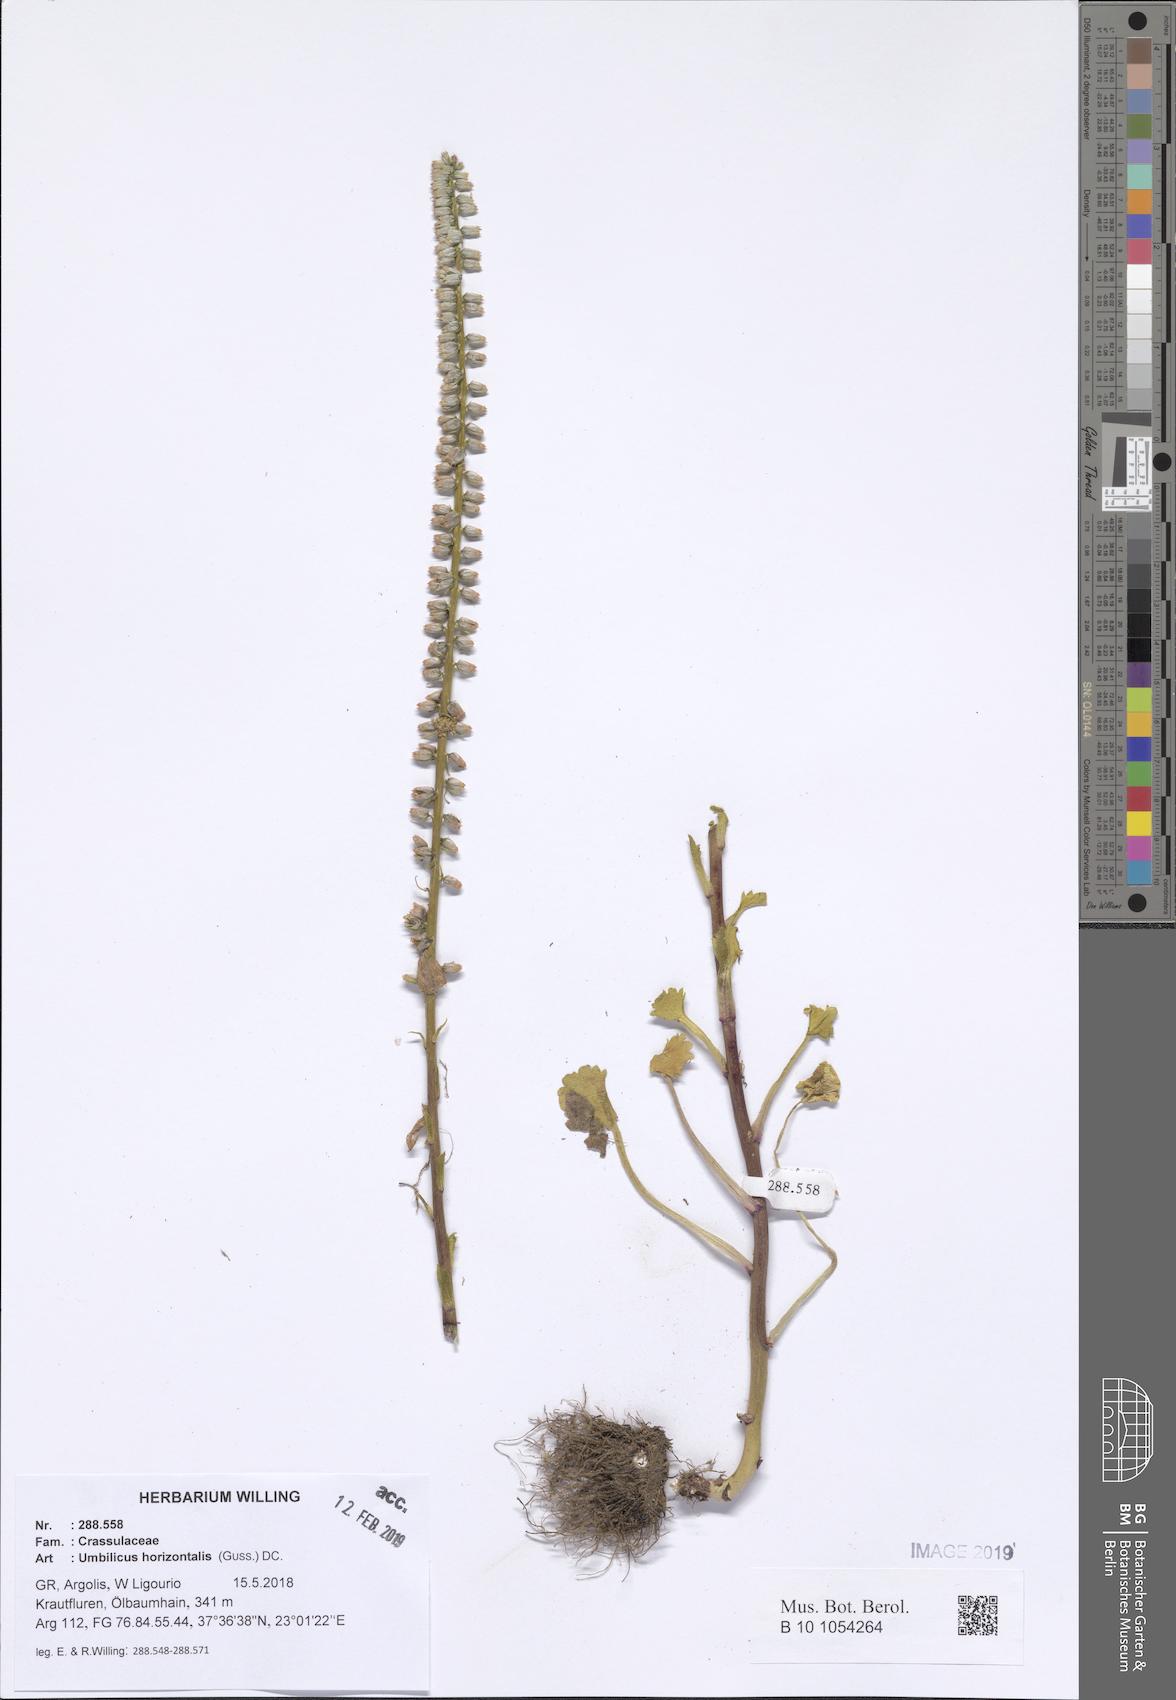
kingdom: Plantae
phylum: Tracheophyta
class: Magnoliopsida
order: Saxifragales
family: Crassulaceae
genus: Umbilicus
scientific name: Umbilicus horizontalis
